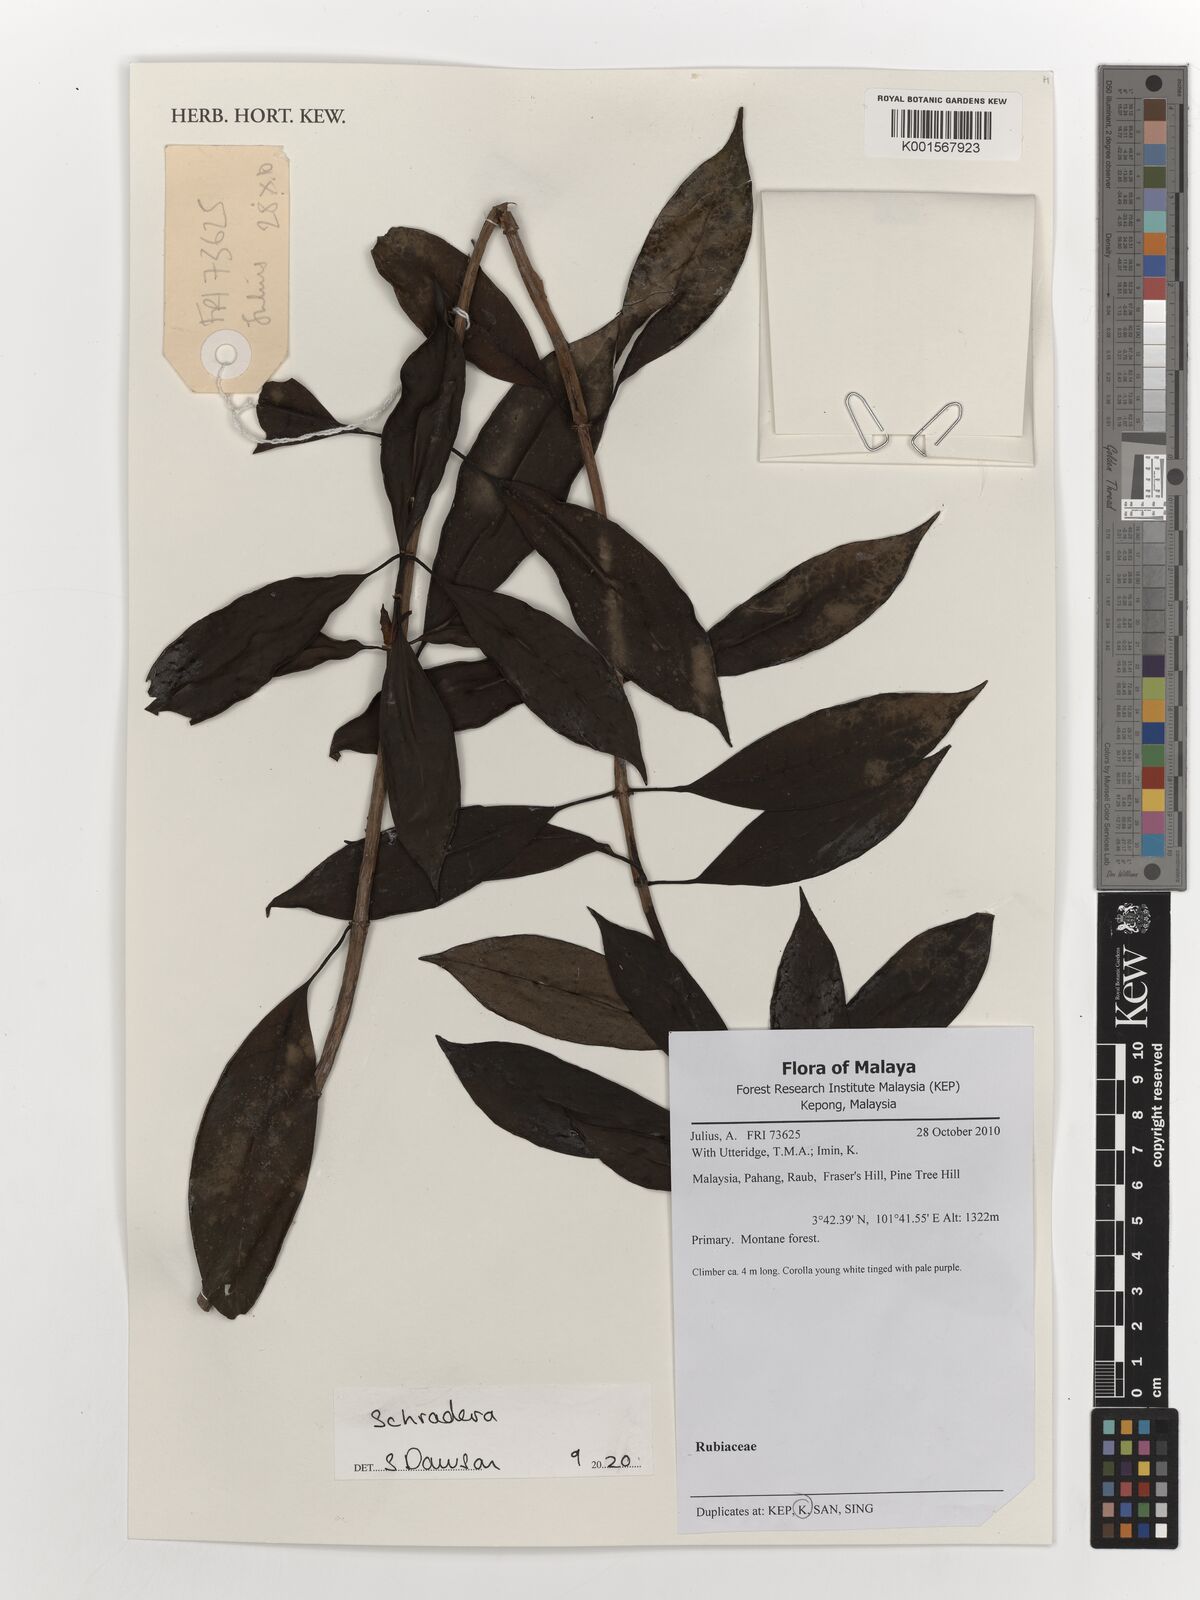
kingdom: Plantae
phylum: Tracheophyta
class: Magnoliopsida
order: Gentianales
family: Rubiaceae
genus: Schradera
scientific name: Schradera
